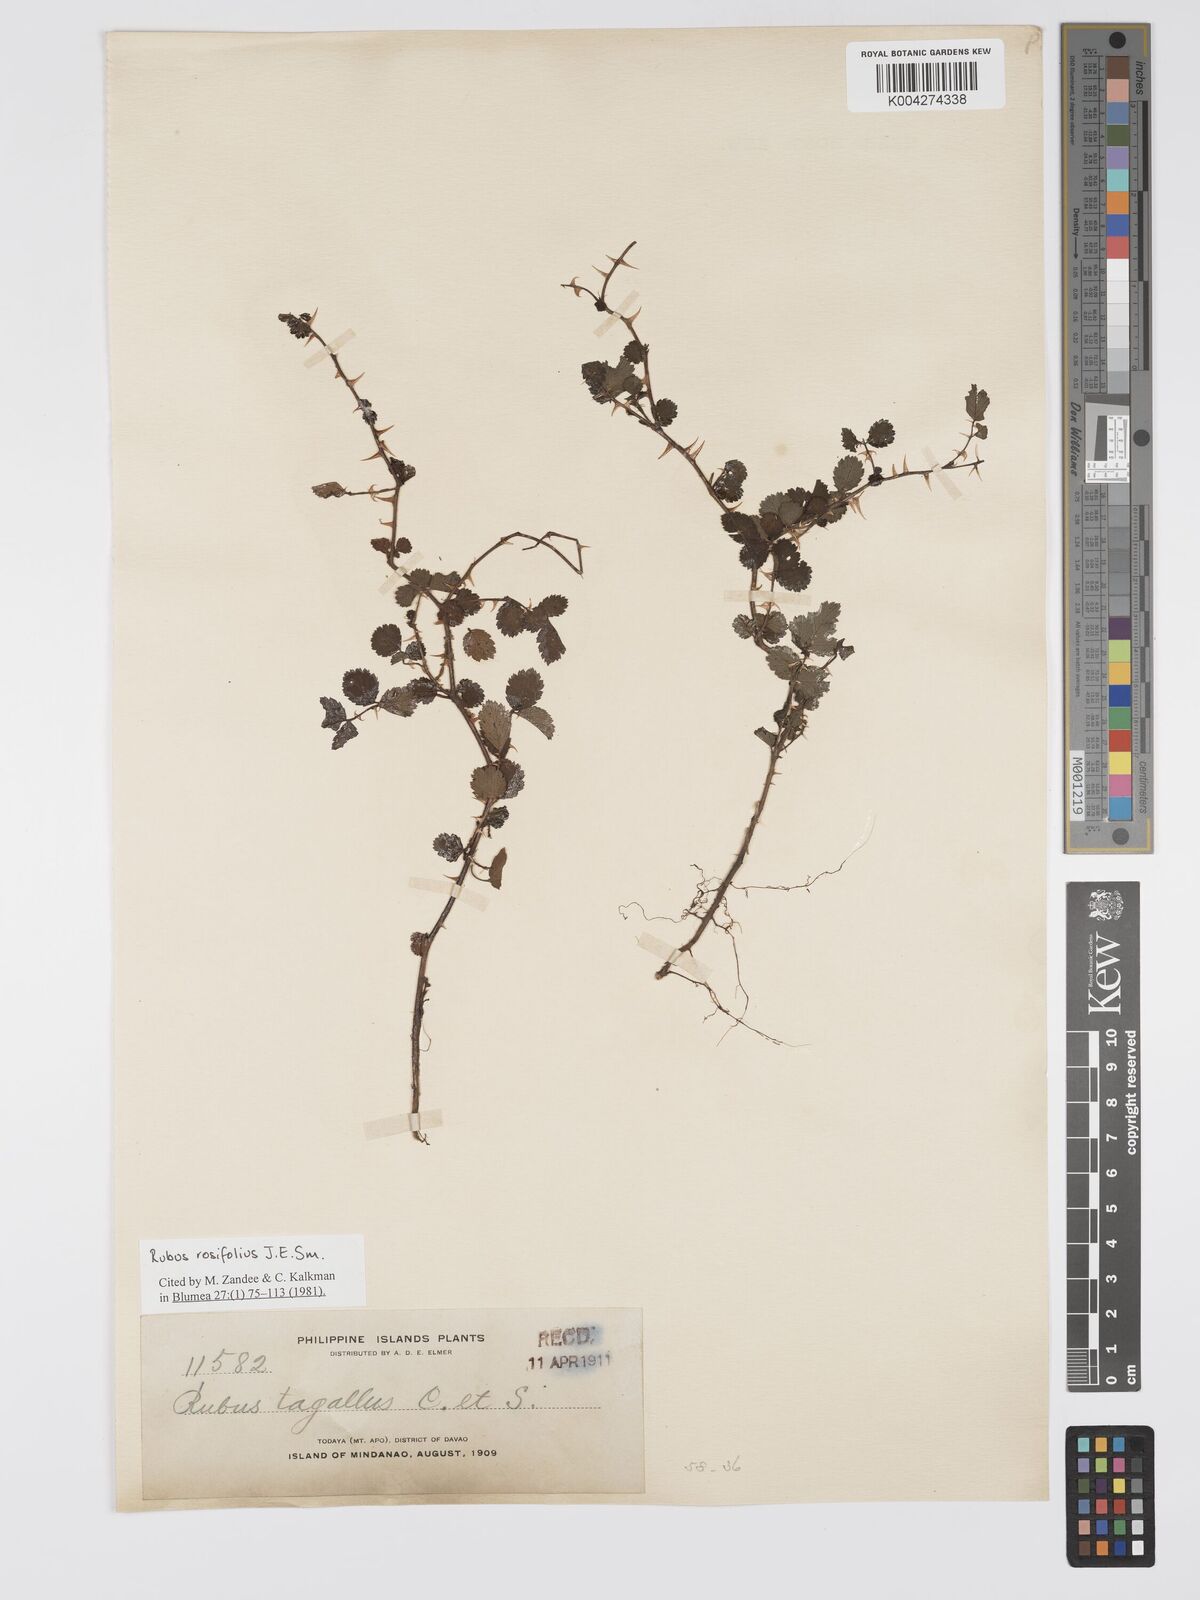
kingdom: Plantae
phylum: Tracheophyta
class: Magnoliopsida
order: Rosales
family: Rosaceae
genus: Rubus
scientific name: Rubus
